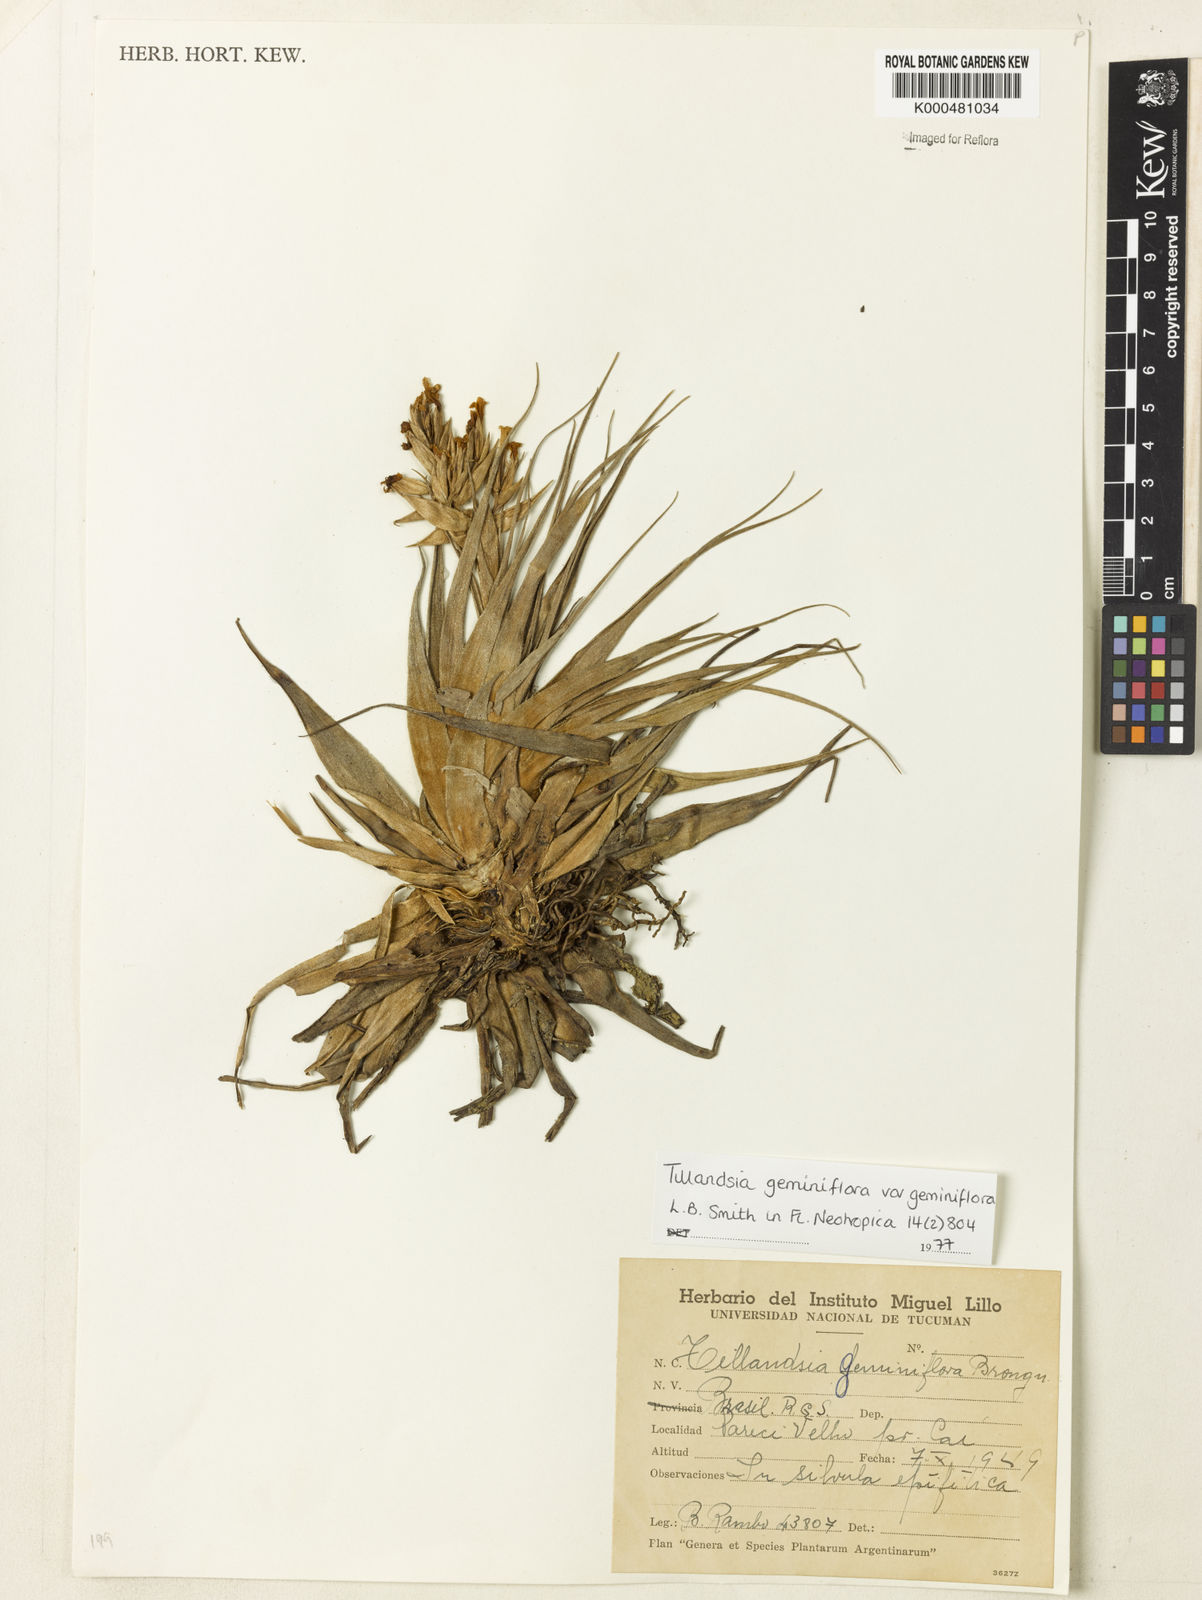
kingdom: Plantae
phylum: Tracheophyta
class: Liliopsida
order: Poales
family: Bromeliaceae
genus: Tillandsia
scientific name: Tillandsia geminiflora
